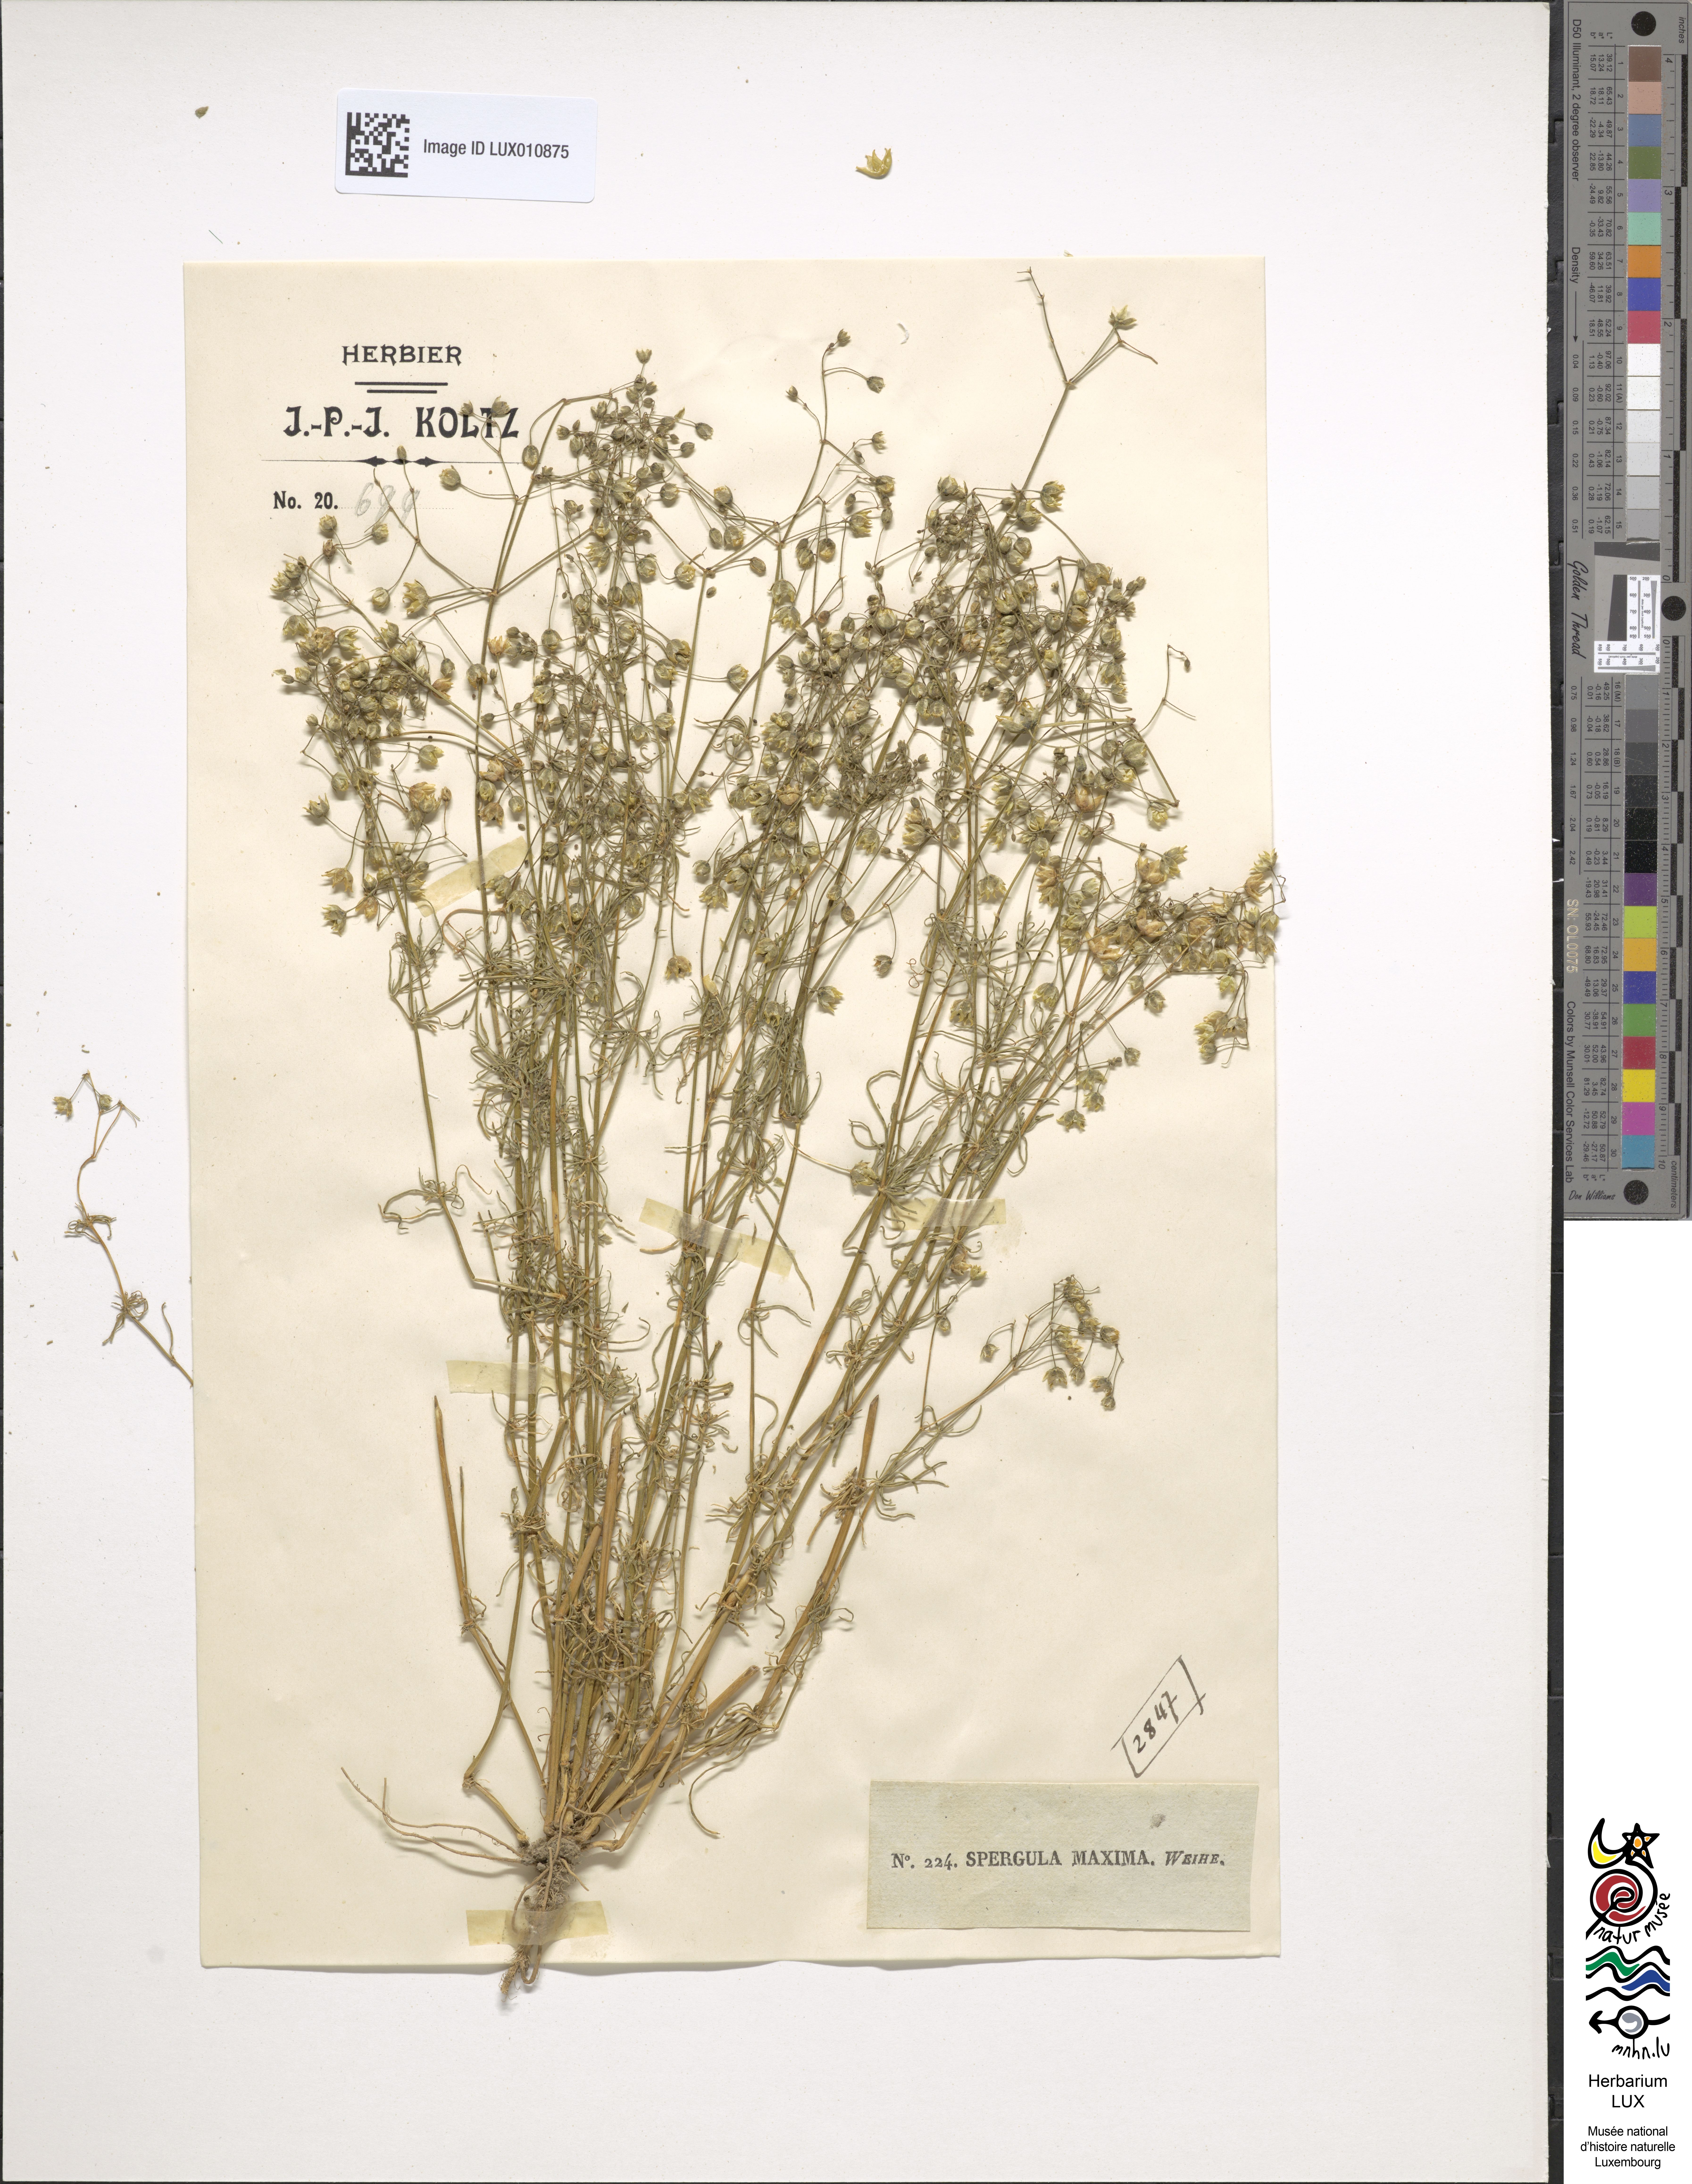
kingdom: Plantae
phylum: Tracheophyta
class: Magnoliopsida
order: Caryophyllales
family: Caryophyllaceae
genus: Spergula
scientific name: Spergula arvensis
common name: Corn spurrey
